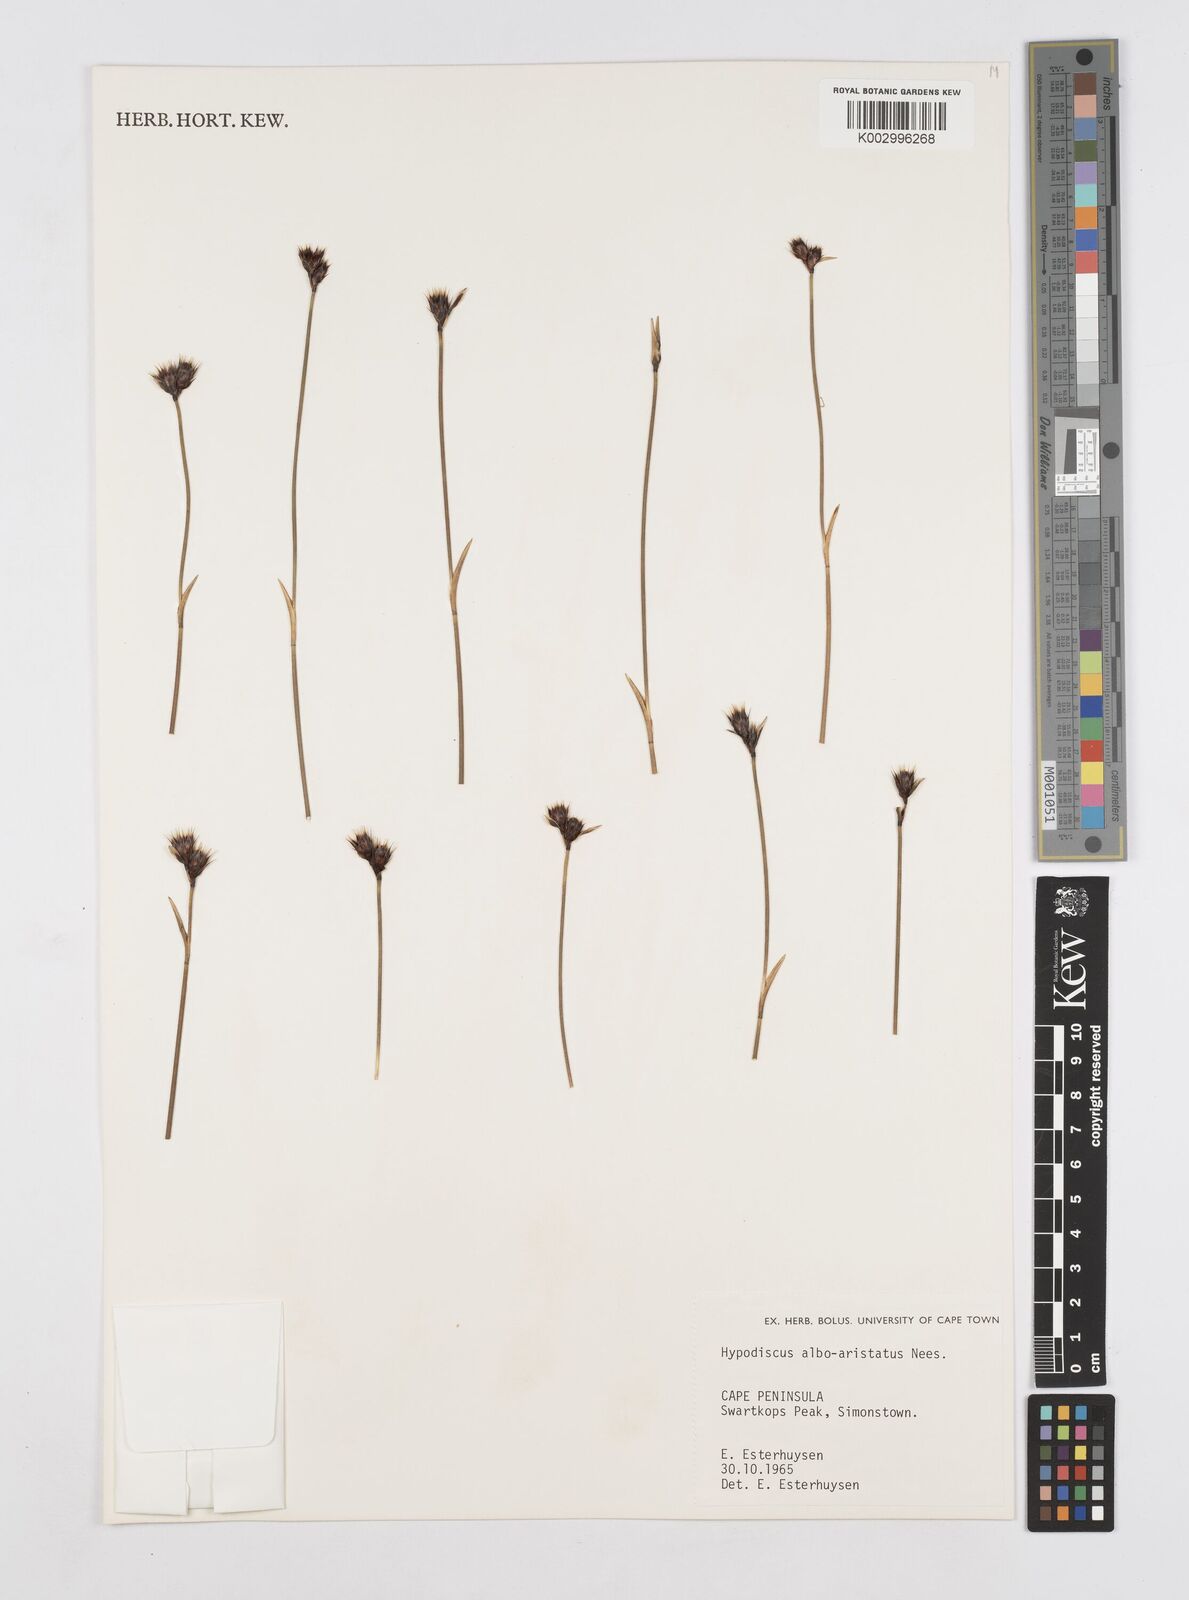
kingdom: Plantae
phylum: Tracheophyta
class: Liliopsida
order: Poales
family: Restionaceae
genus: Hypodiscus
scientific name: Hypodiscus alboaristatus
